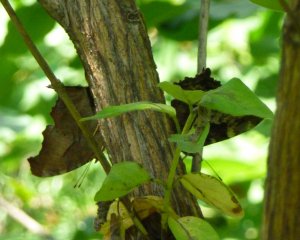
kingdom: Animalia
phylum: Arthropoda
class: Insecta
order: Lepidoptera
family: Nymphalidae
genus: Polygonia
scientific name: Polygonia interrogationis
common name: Question Mark
